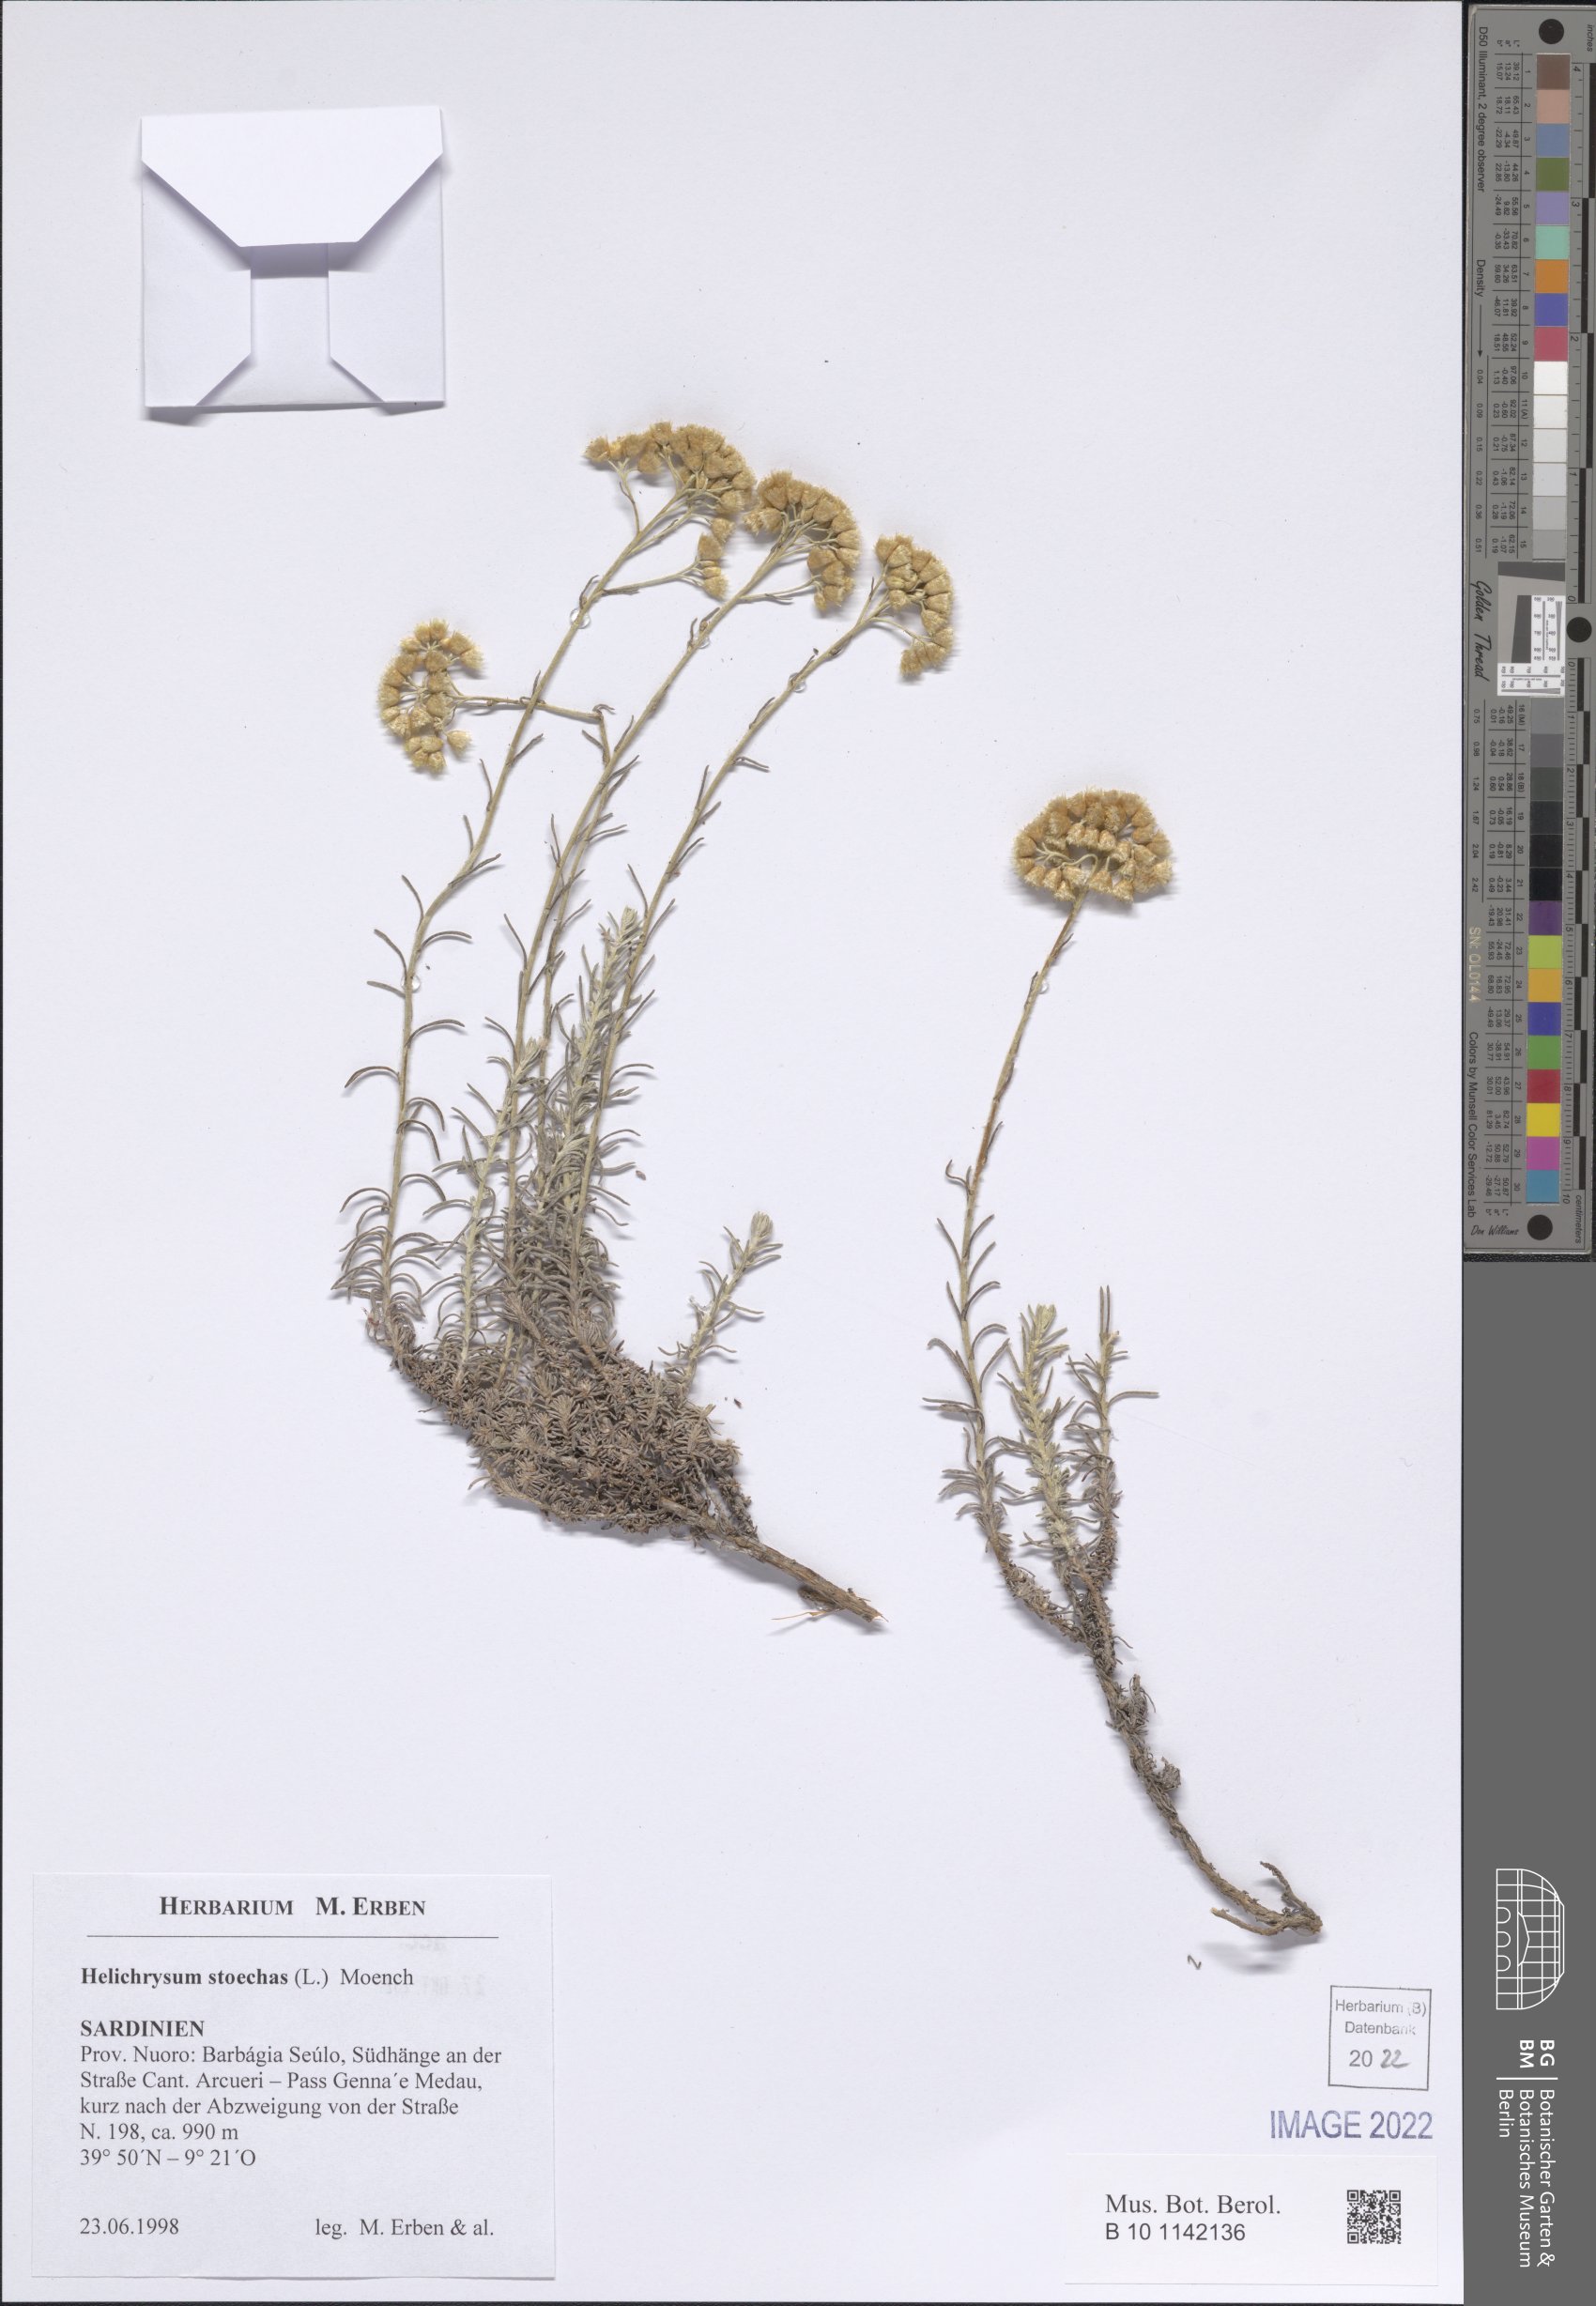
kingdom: Plantae
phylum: Tracheophyta
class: Magnoliopsida
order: Asterales
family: Asteraceae
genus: Helichrysum
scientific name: Helichrysum stoechas
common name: Goldilocks
